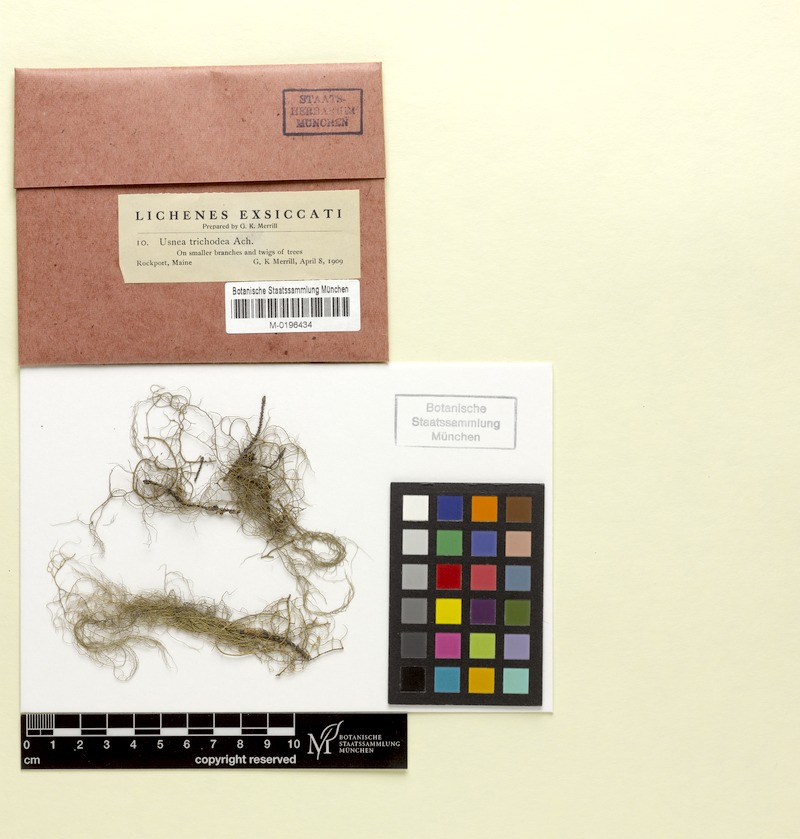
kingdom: Fungi
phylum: Ascomycota
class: Lecanoromycetes
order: Lecanorales
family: Parmeliaceae
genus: Usnea
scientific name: Usnea trichodea
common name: Bony beard lichen
